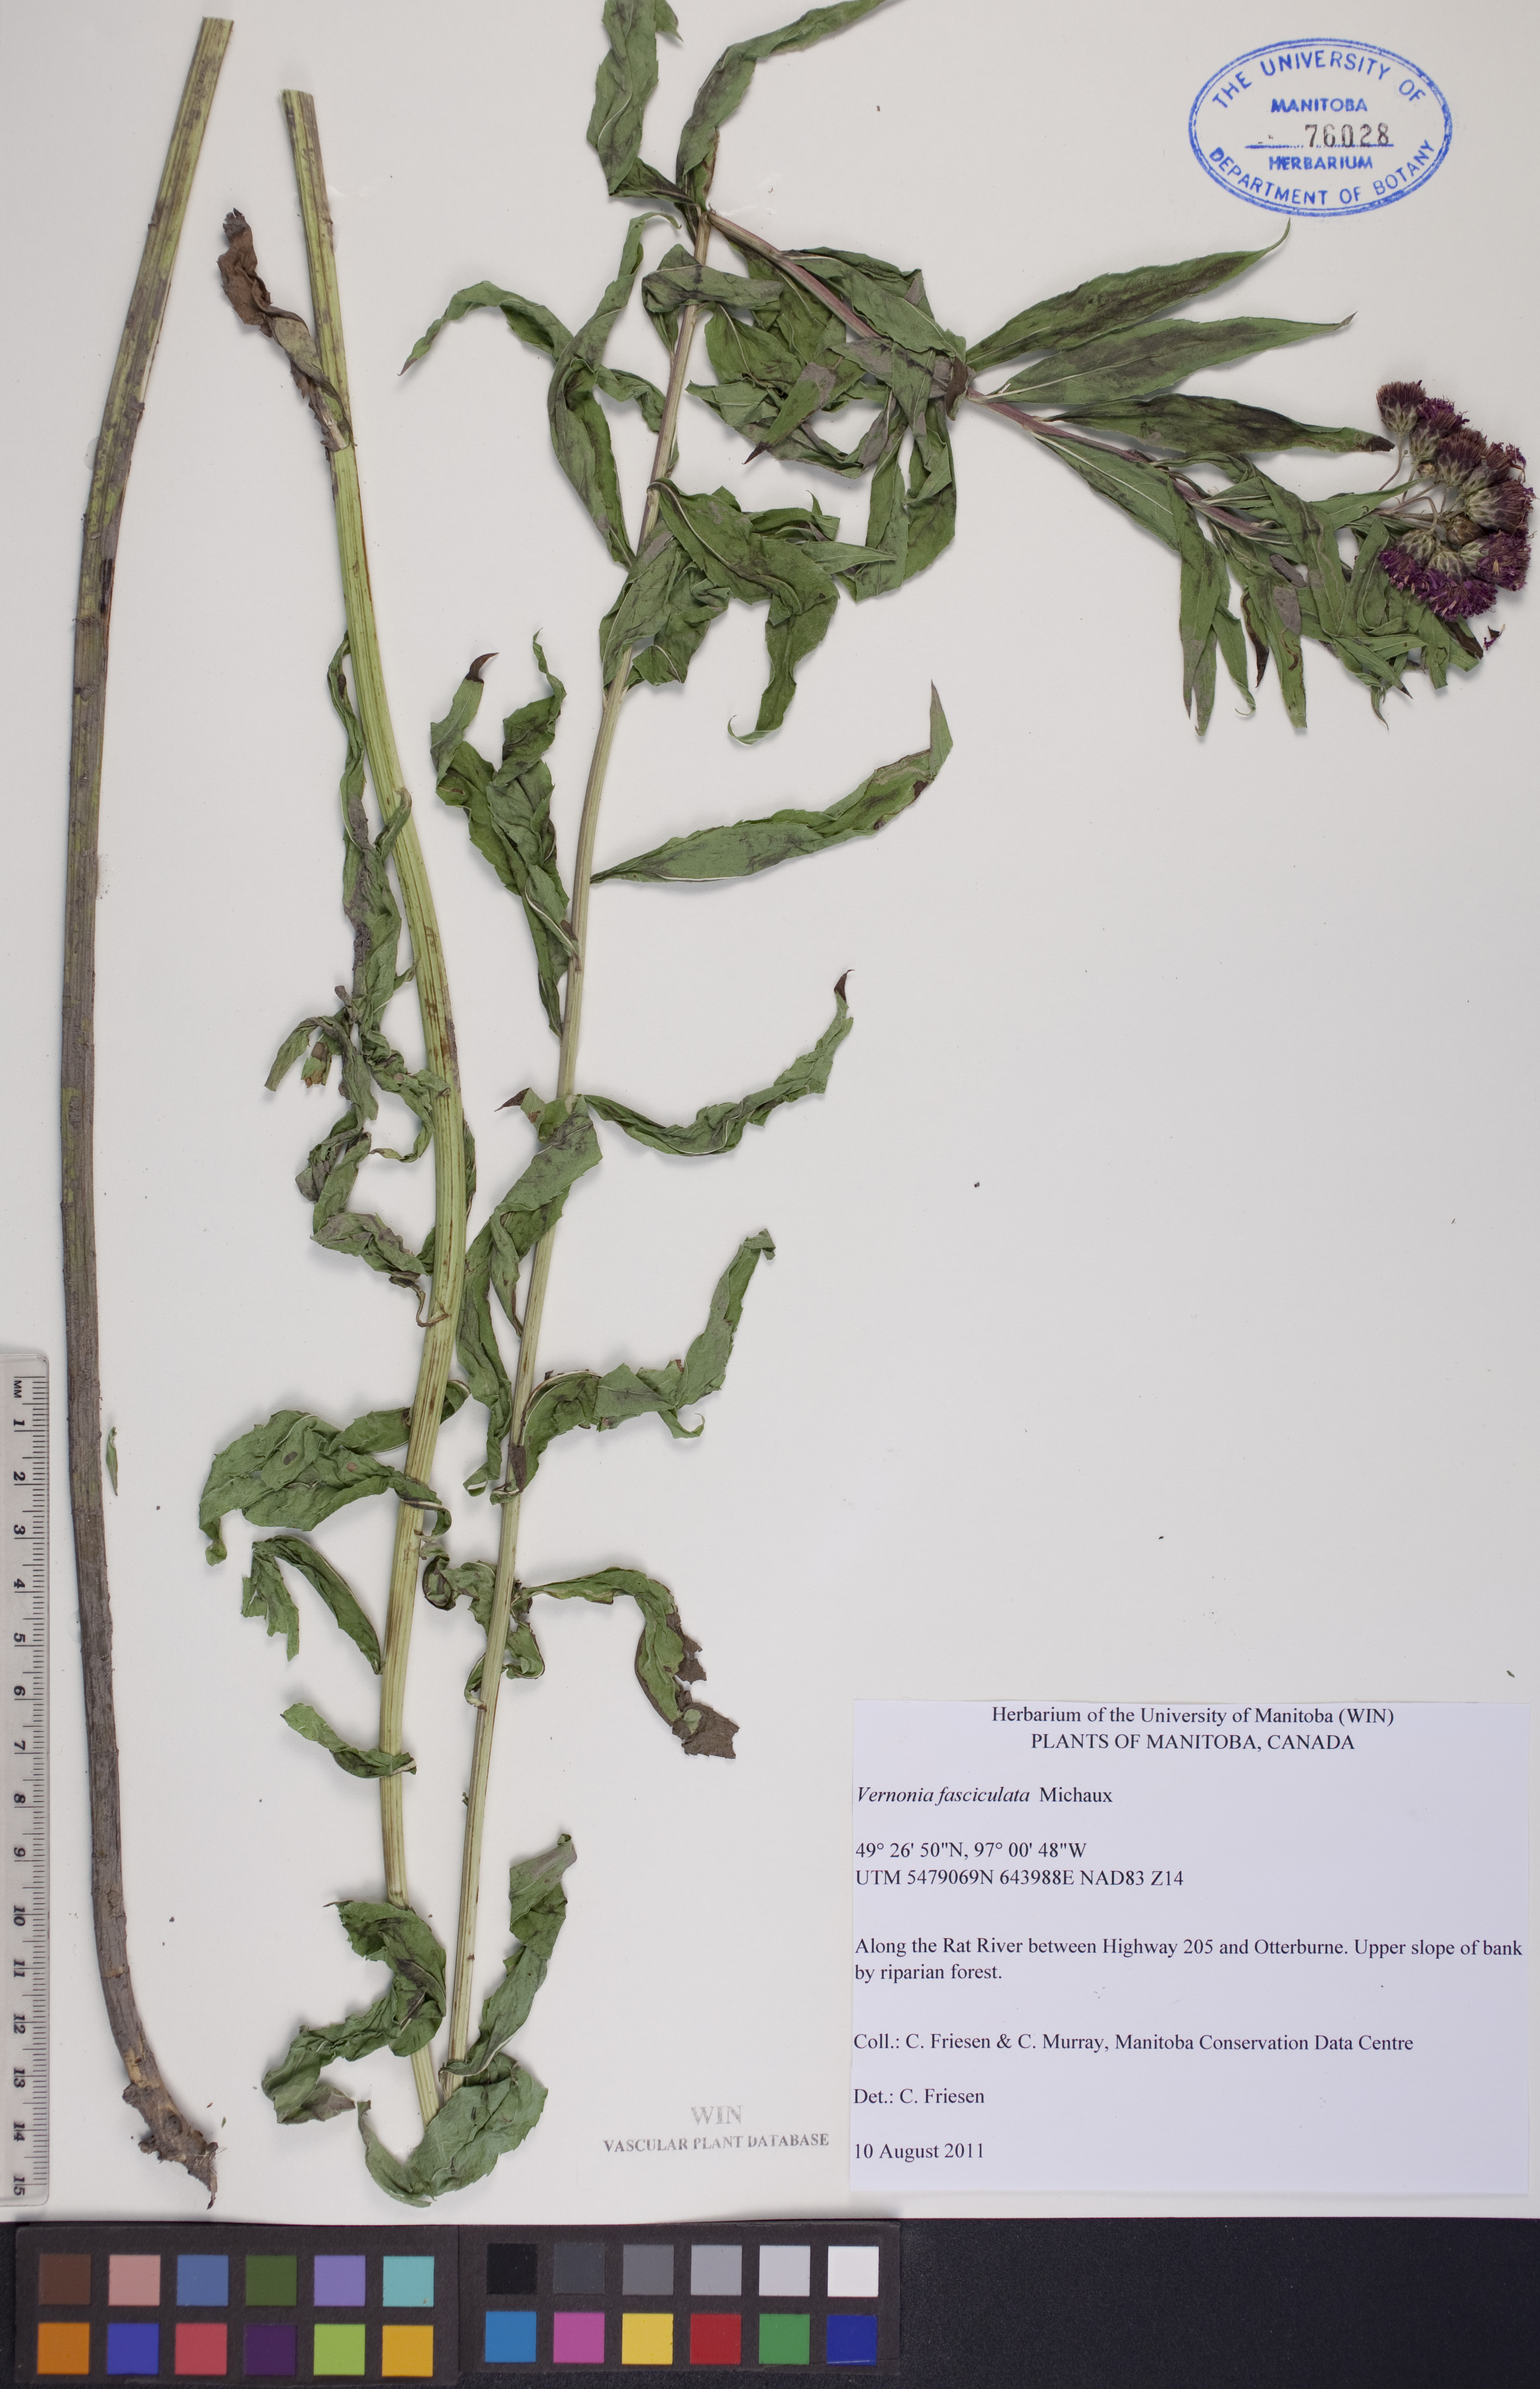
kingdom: Plantae
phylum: Tracheophyta
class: Magnoliopsida
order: Asterales
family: Asteraceae
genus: Vernonia
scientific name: Vernonia fasciculata
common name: Fascicled ironweed
